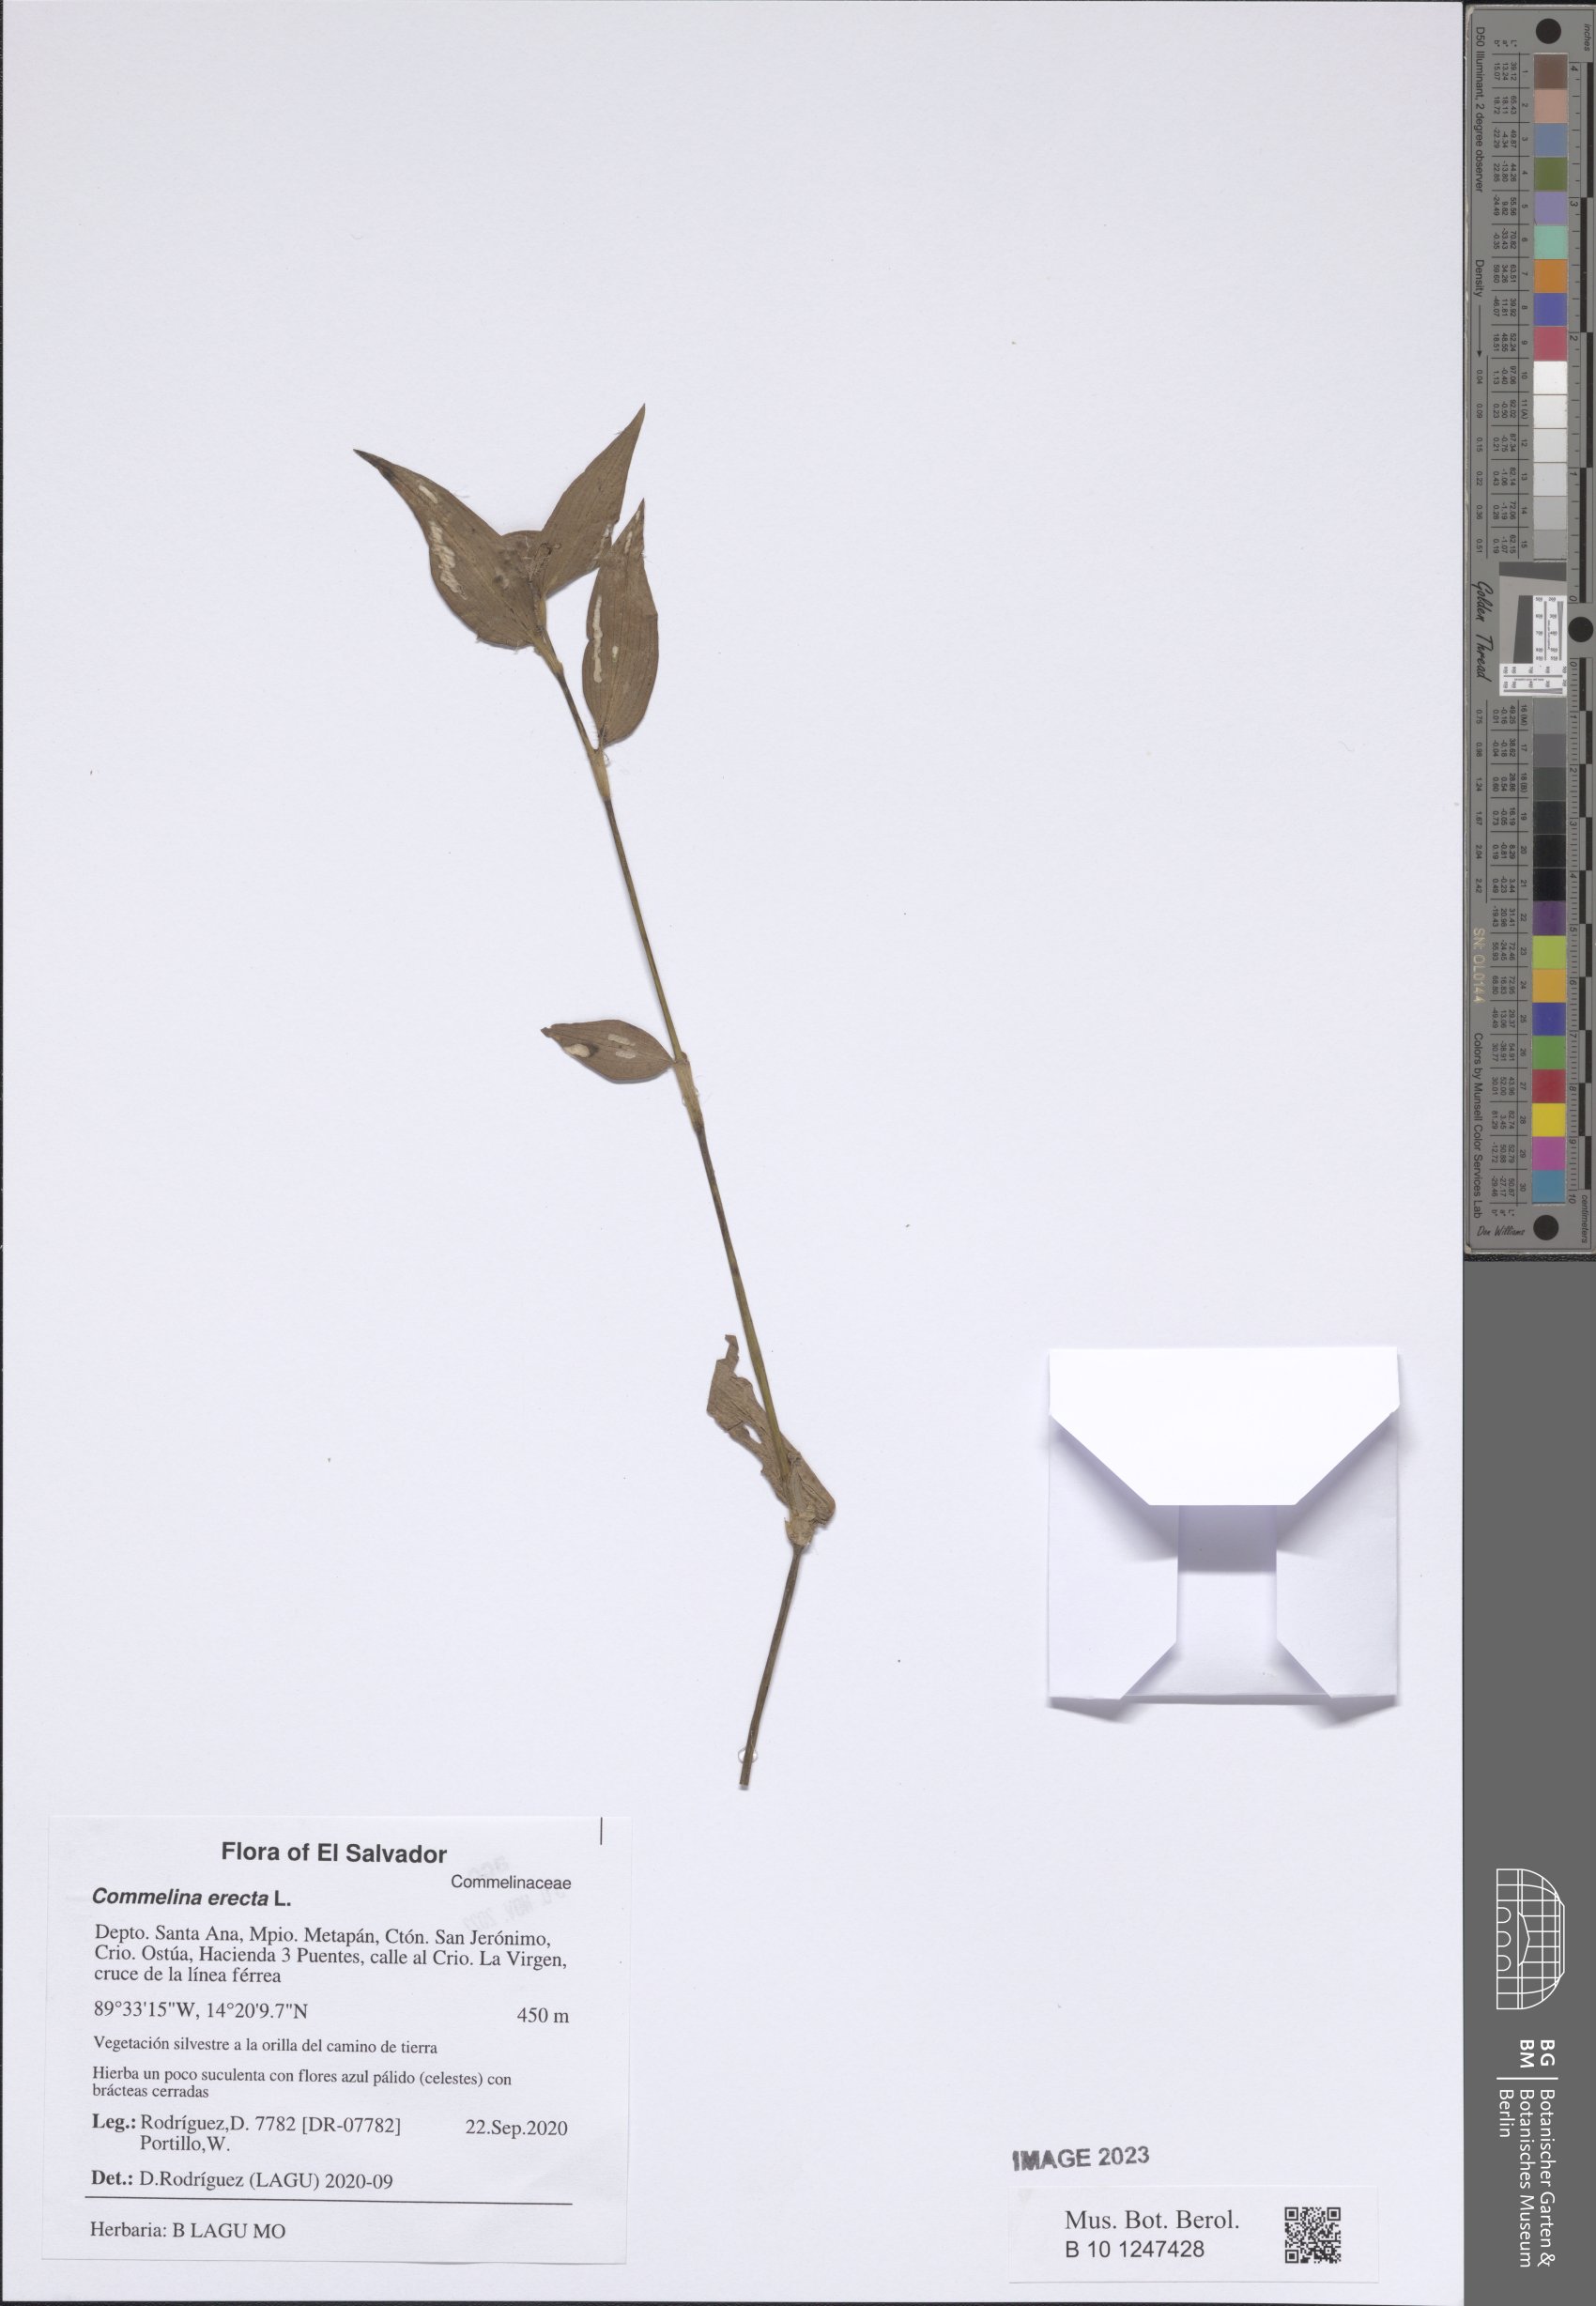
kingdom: Plantae
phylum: Tracheophyta
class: Liliopsida
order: Commelinales
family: Commelinaceae
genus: Commelina
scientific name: Commelina erecta
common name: Blousel blommetjie
